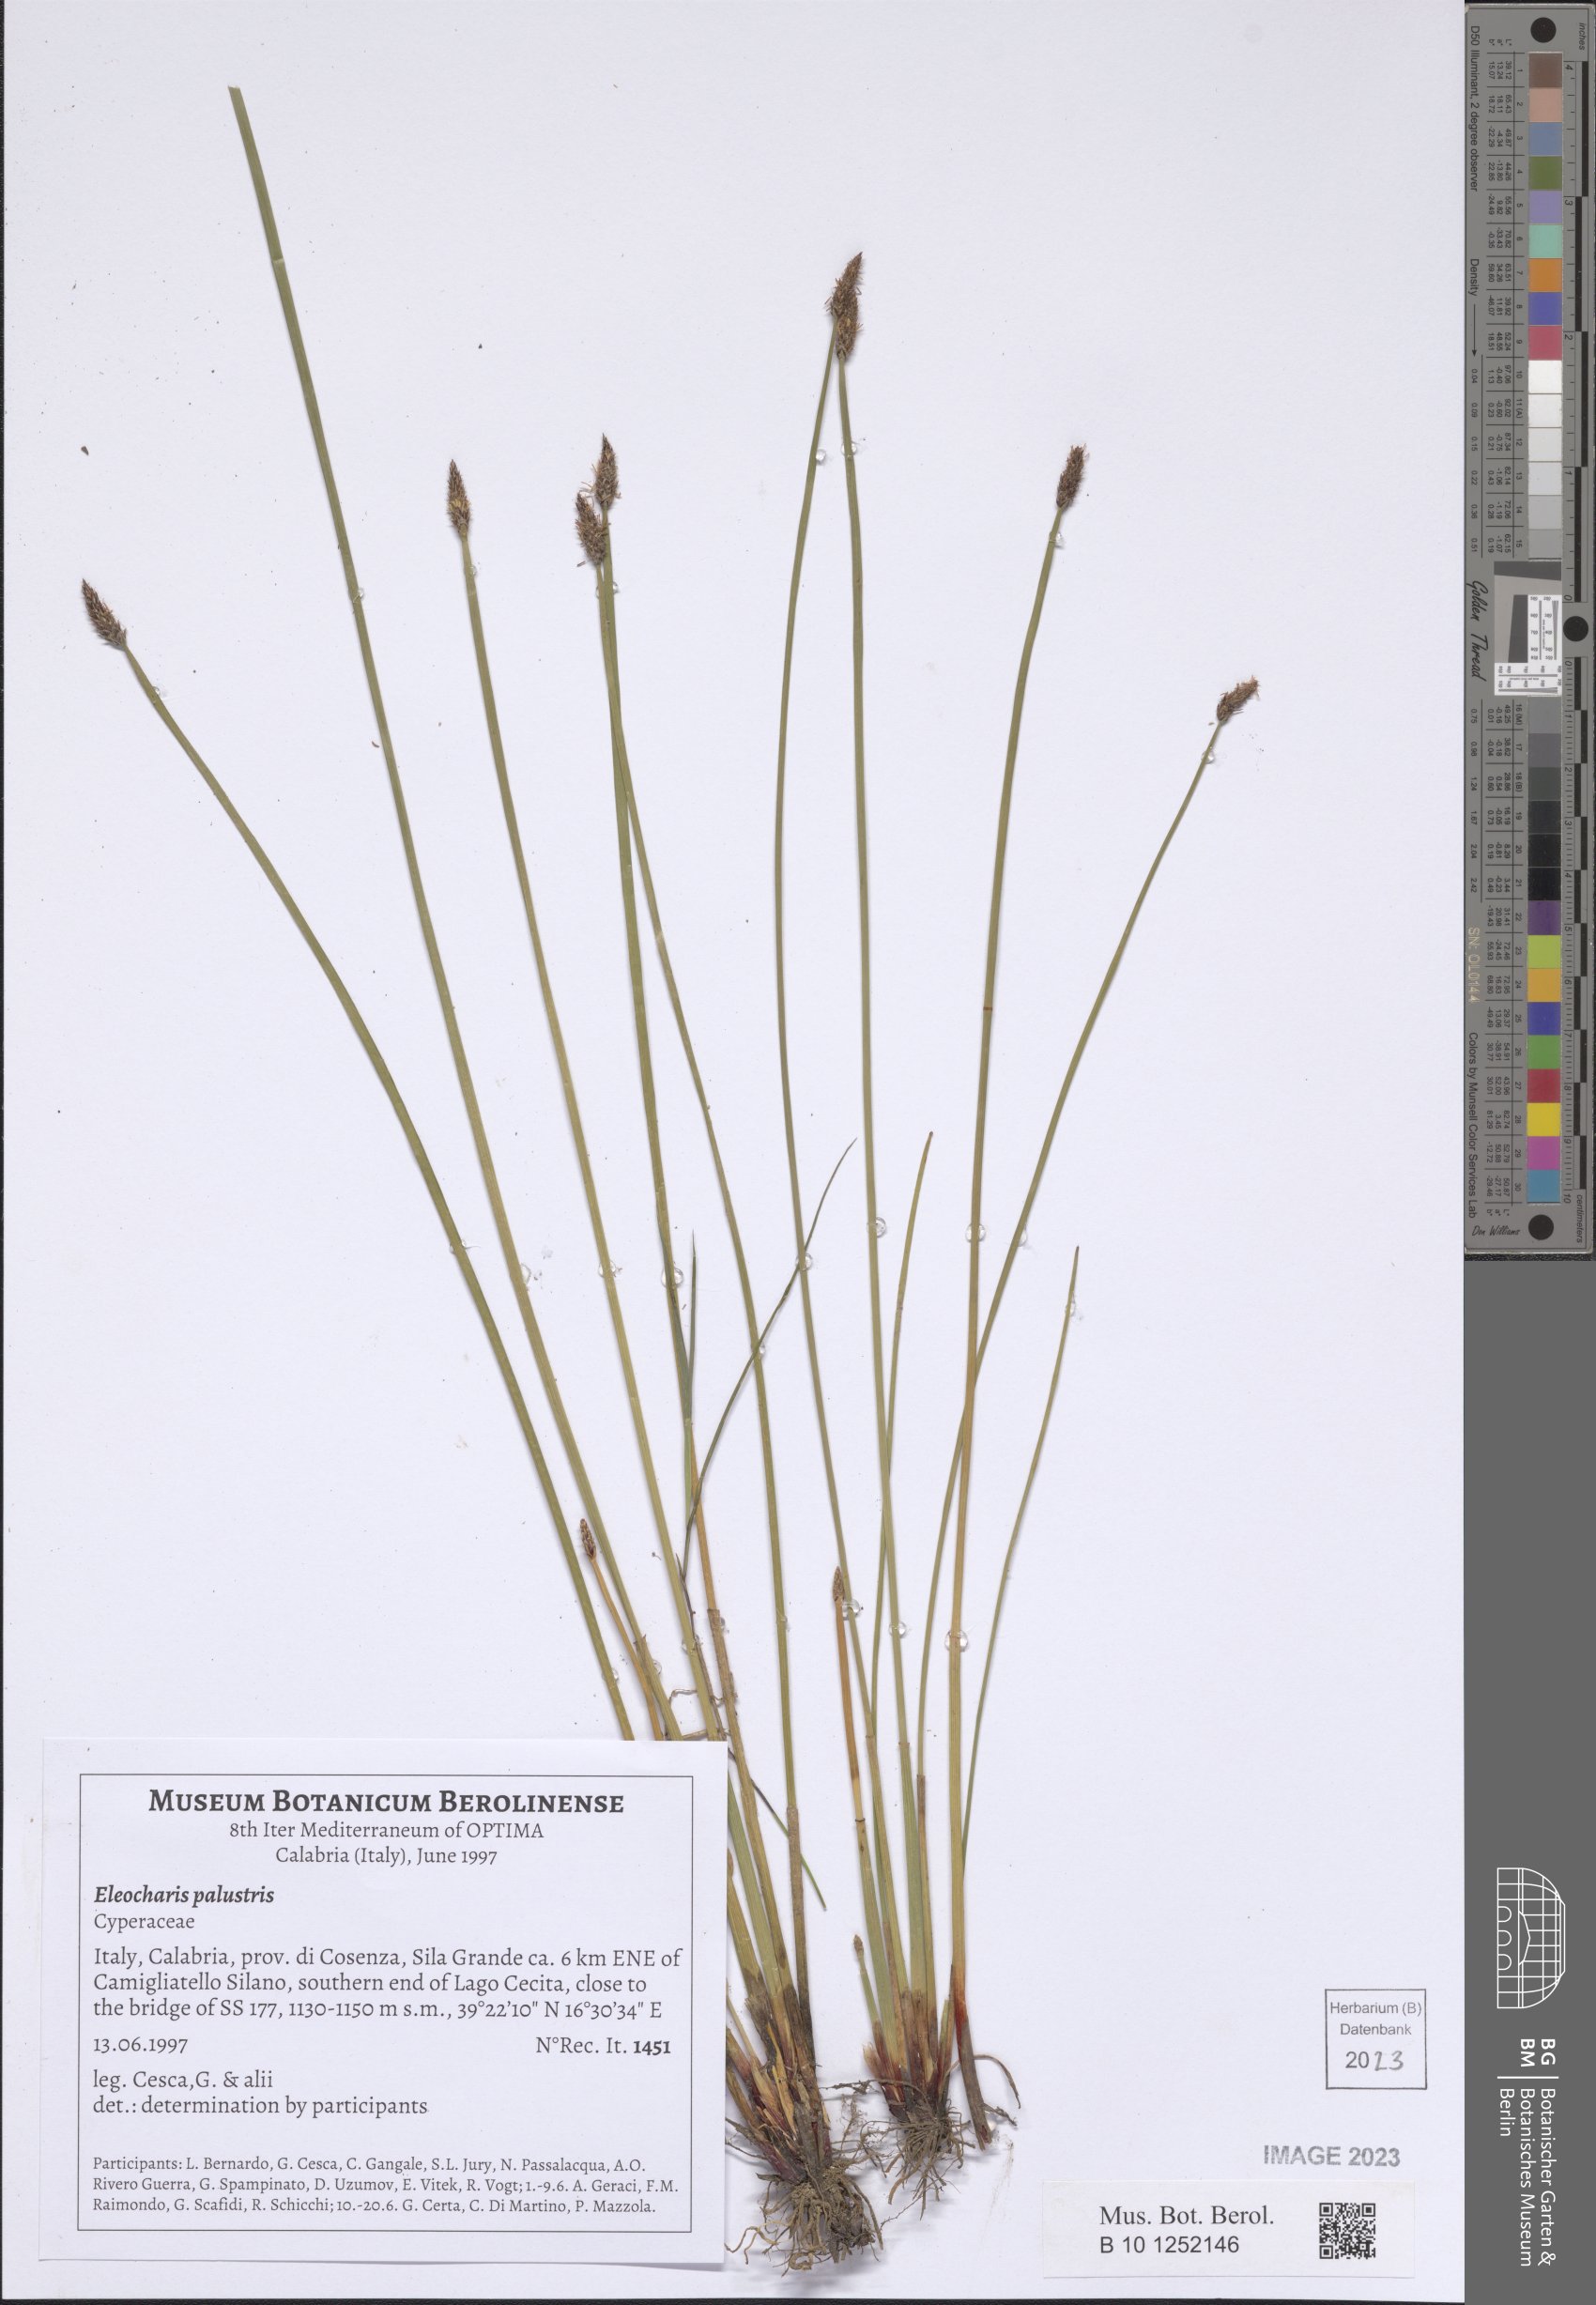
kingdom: Plantae
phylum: Tracheophyta
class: Liliopsida
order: Poales
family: Cyperaceae
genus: Eleocharis
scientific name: Eleocharis palustris
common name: Common spike-rush
